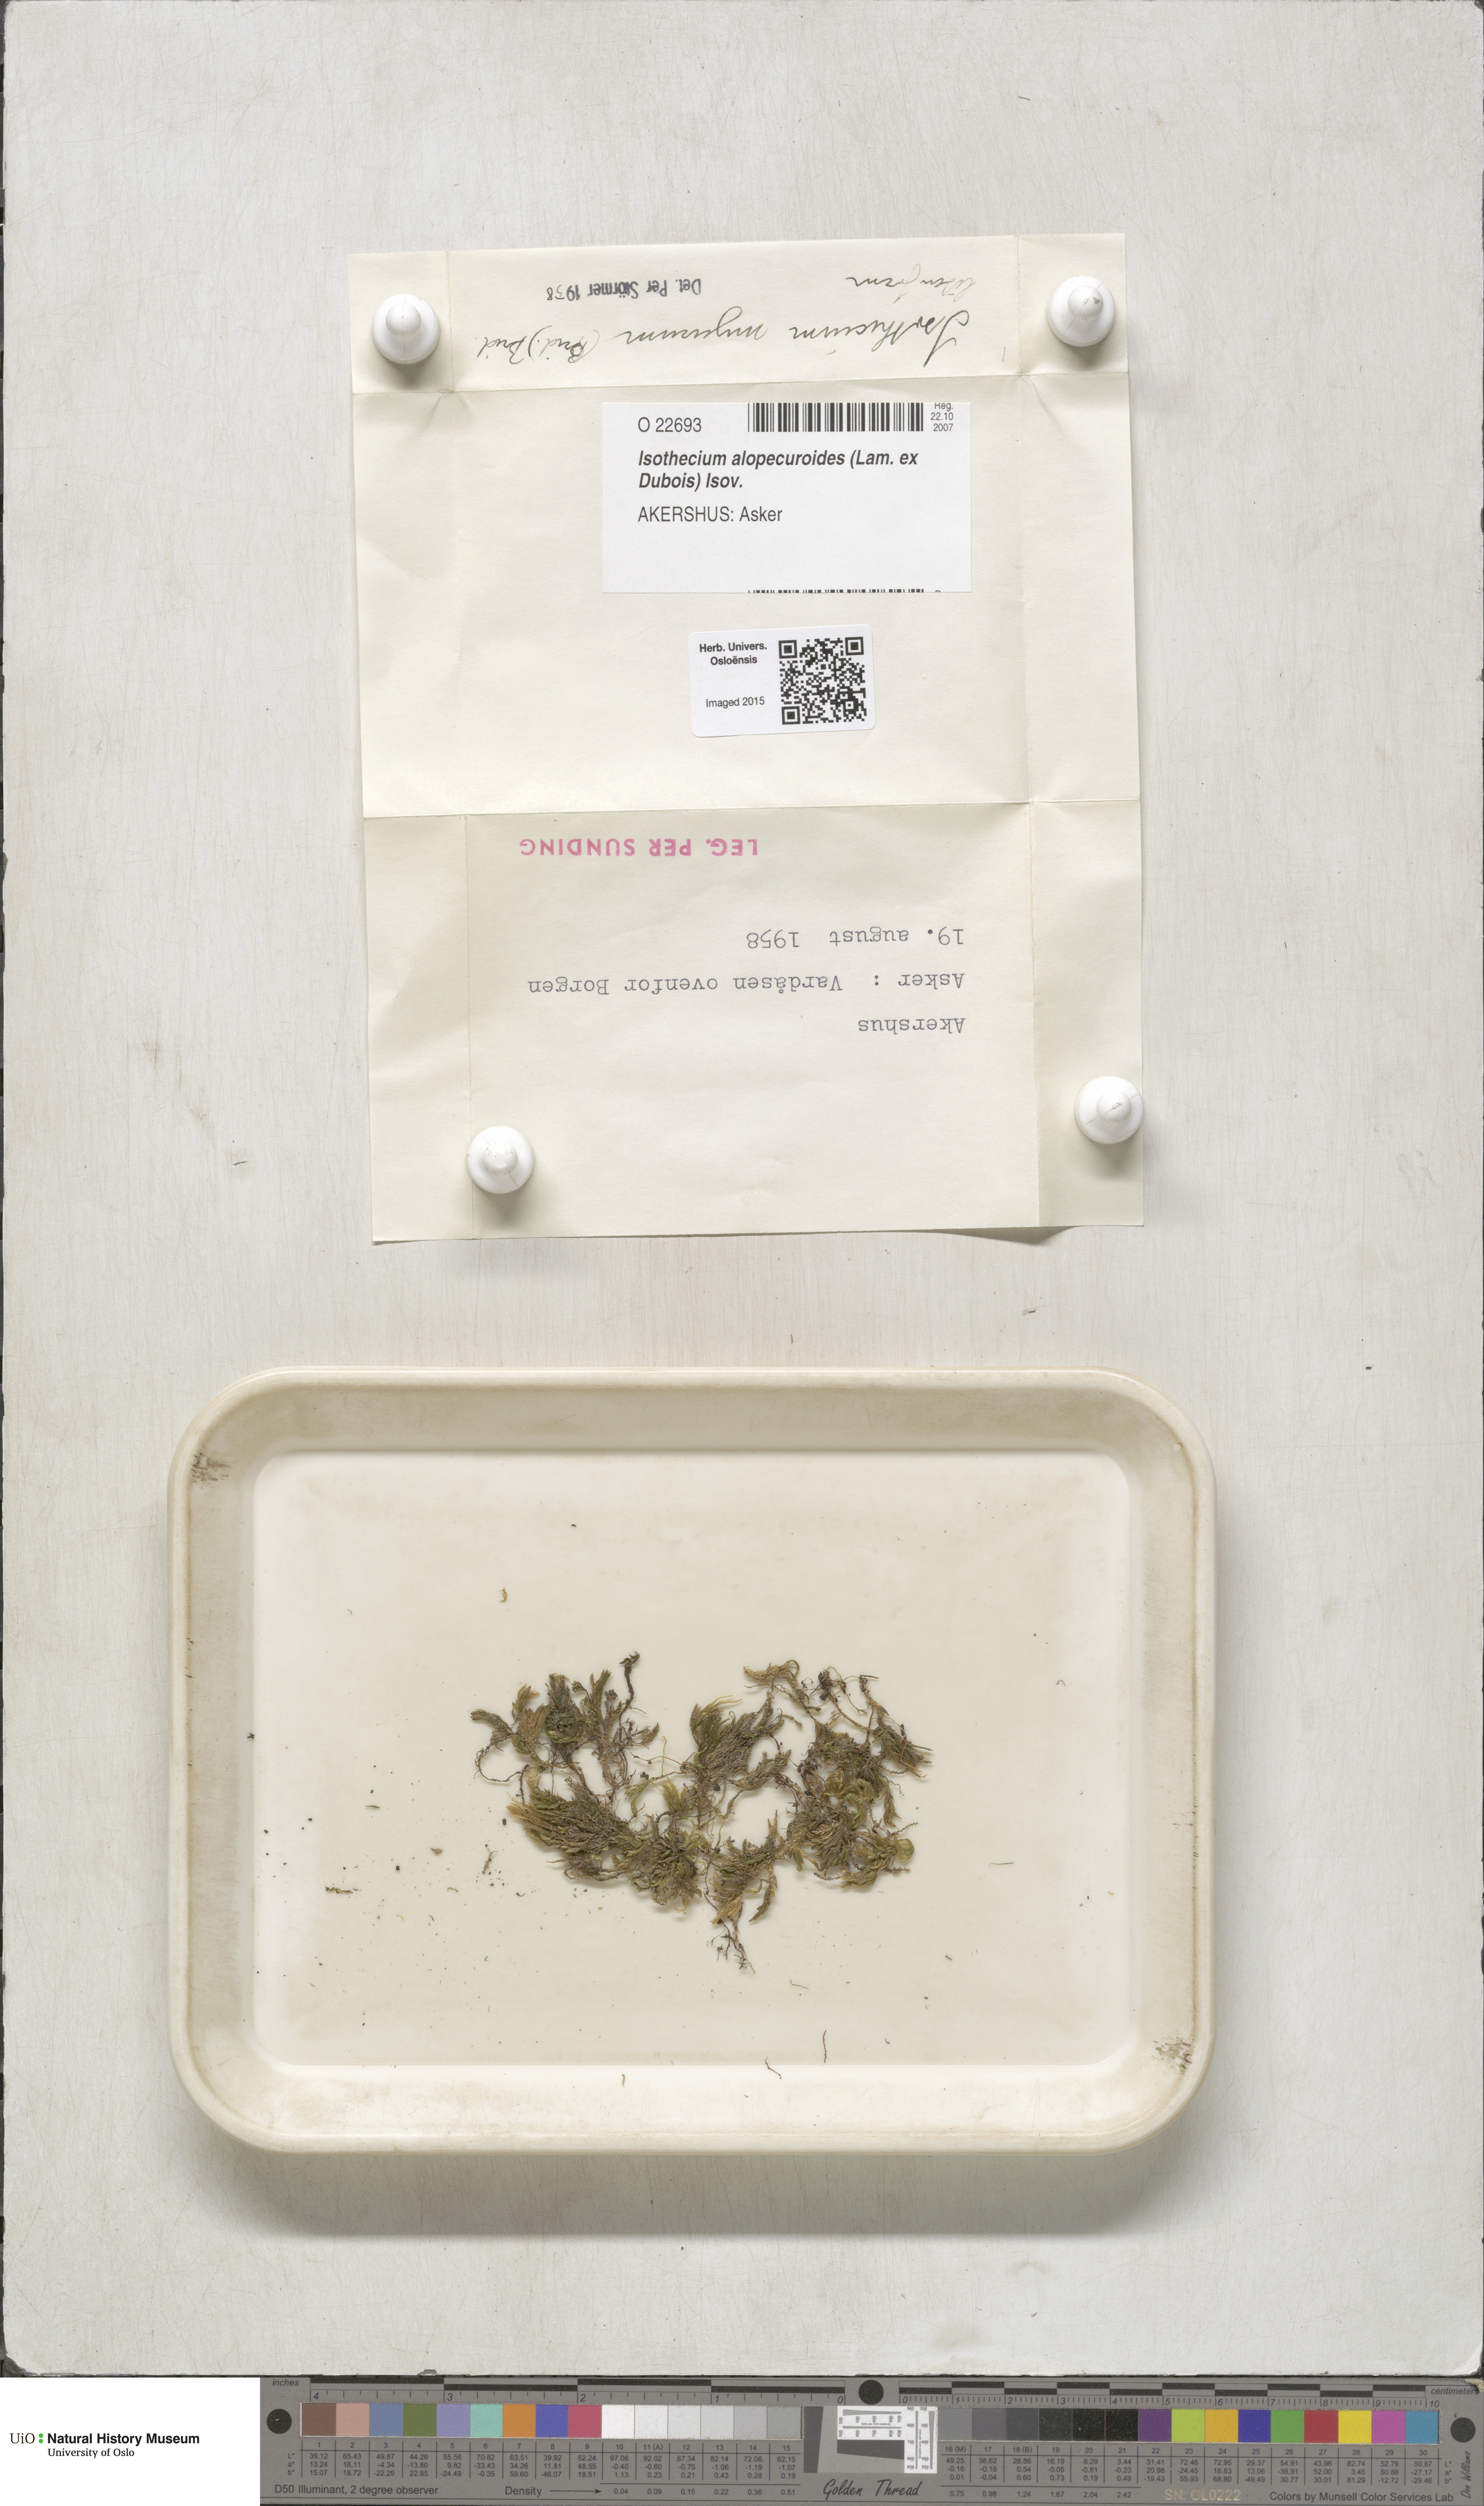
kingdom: Plantae
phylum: Bryophyta
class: Bryopsida
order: Hypnales
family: Lembophyllaceae
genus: Isothecium
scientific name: Isothecium alopecuroides
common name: Larger mouse-tail moss
